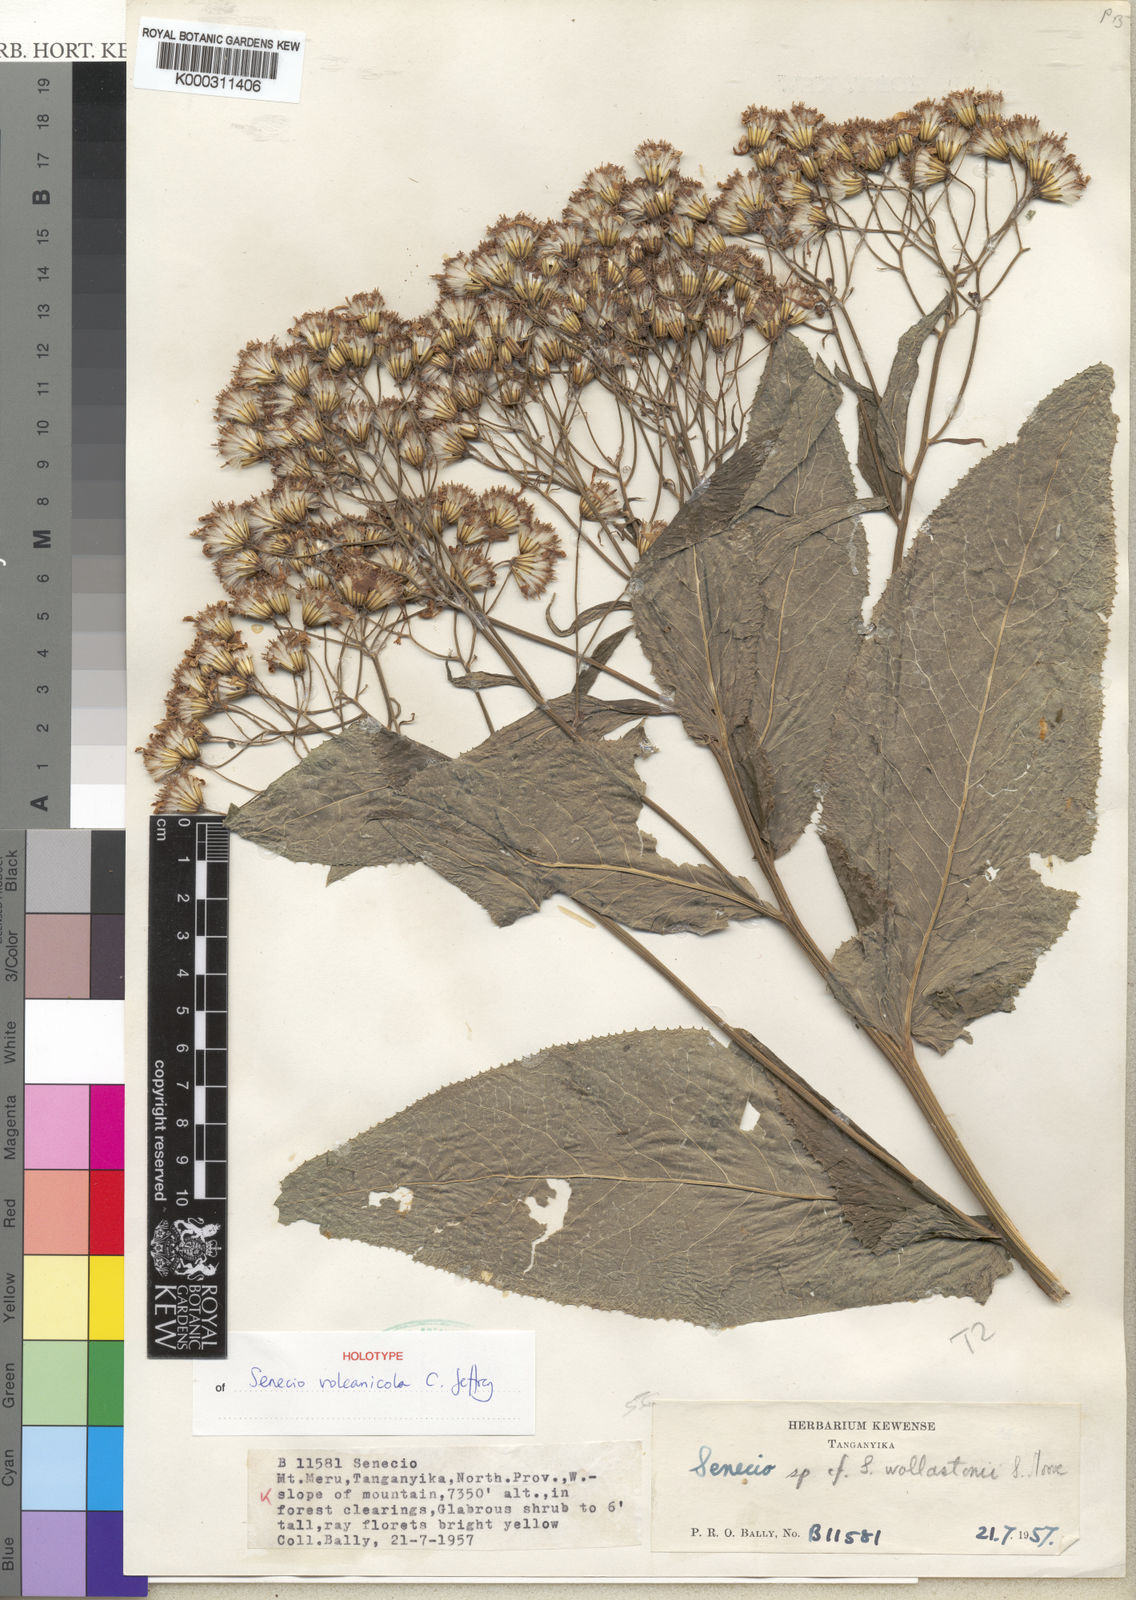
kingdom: Plantae
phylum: Tracheophyta
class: Magnoliopsida
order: Asterales
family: Asteraceae
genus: Senecio
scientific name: Senecio volcanicola
